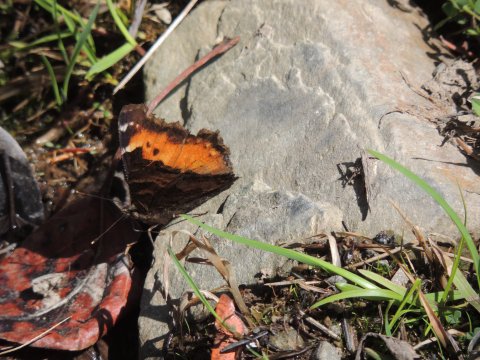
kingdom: Animalia
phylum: Arthropoda
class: Insecta
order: Lepidoptera
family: Nymphalidae
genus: Nymphalis
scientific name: Nymphalis californica
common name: California Tortoiseshell
